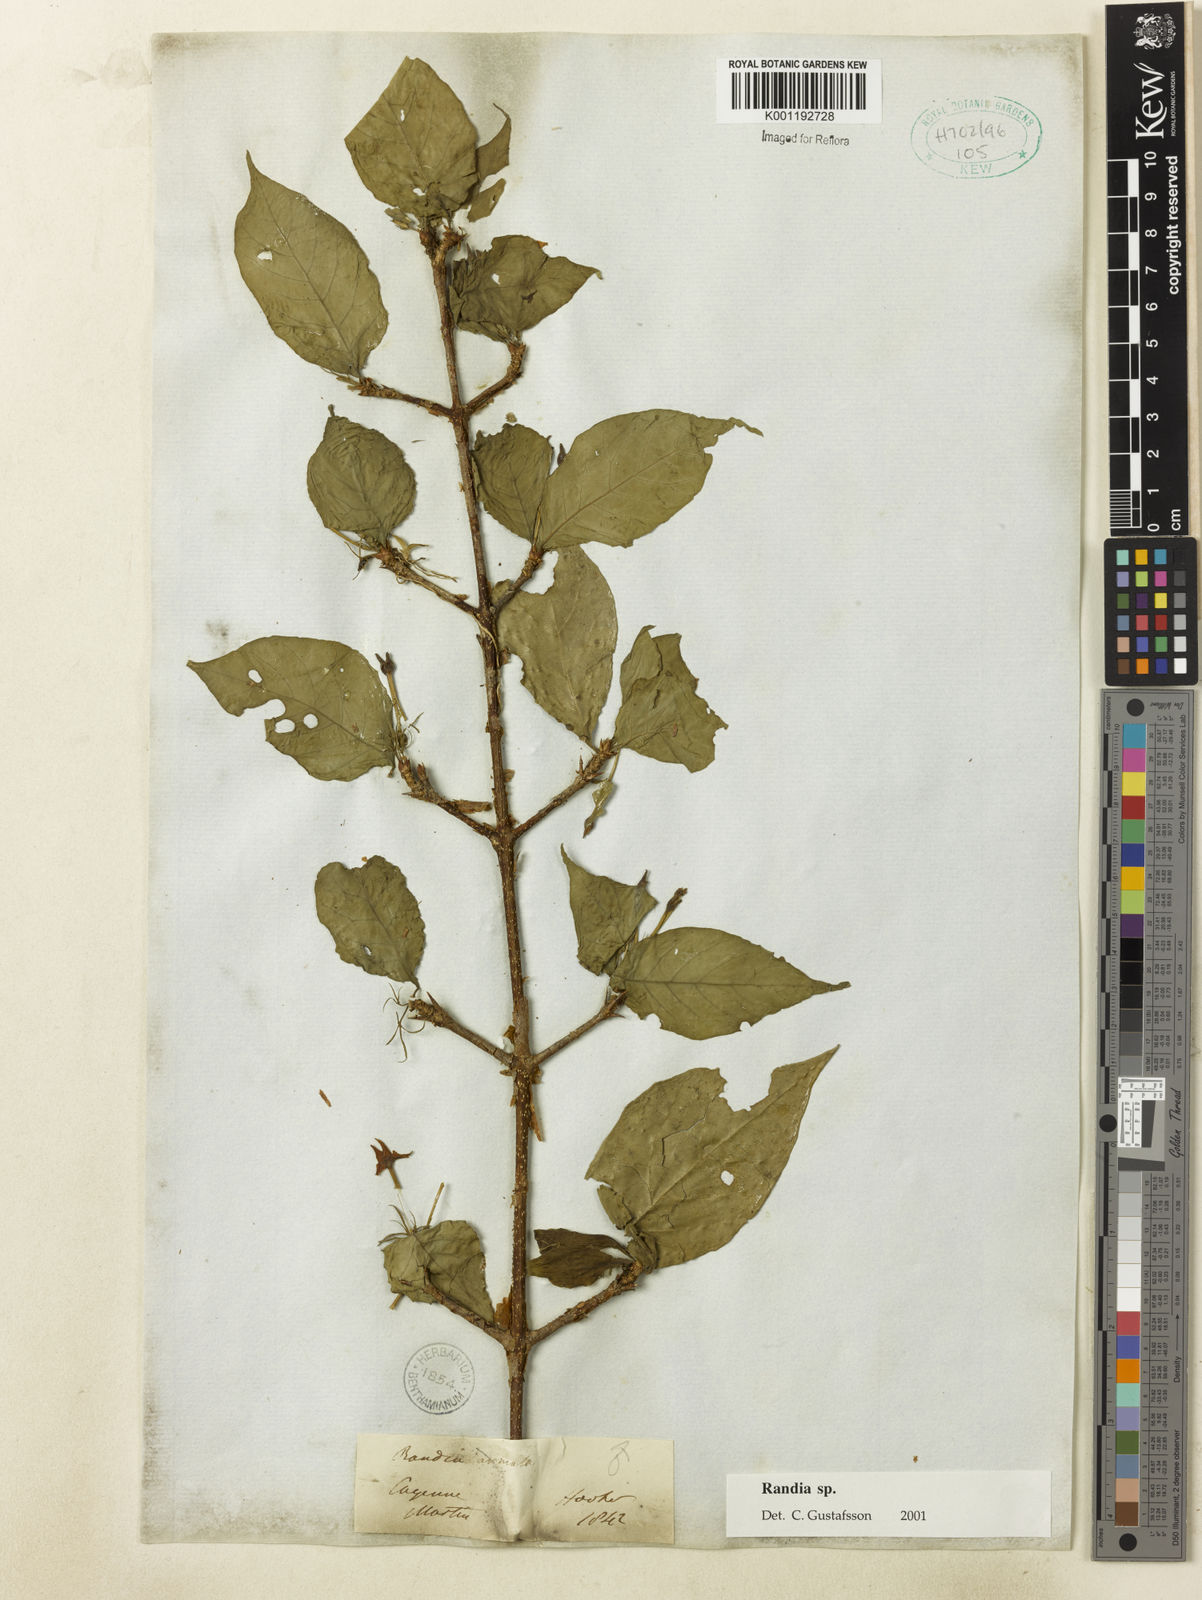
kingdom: Plantae
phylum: Tracheophyta
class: Magnoliopsida
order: Gentianales
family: Rubiaceae
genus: Randia
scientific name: Randia
